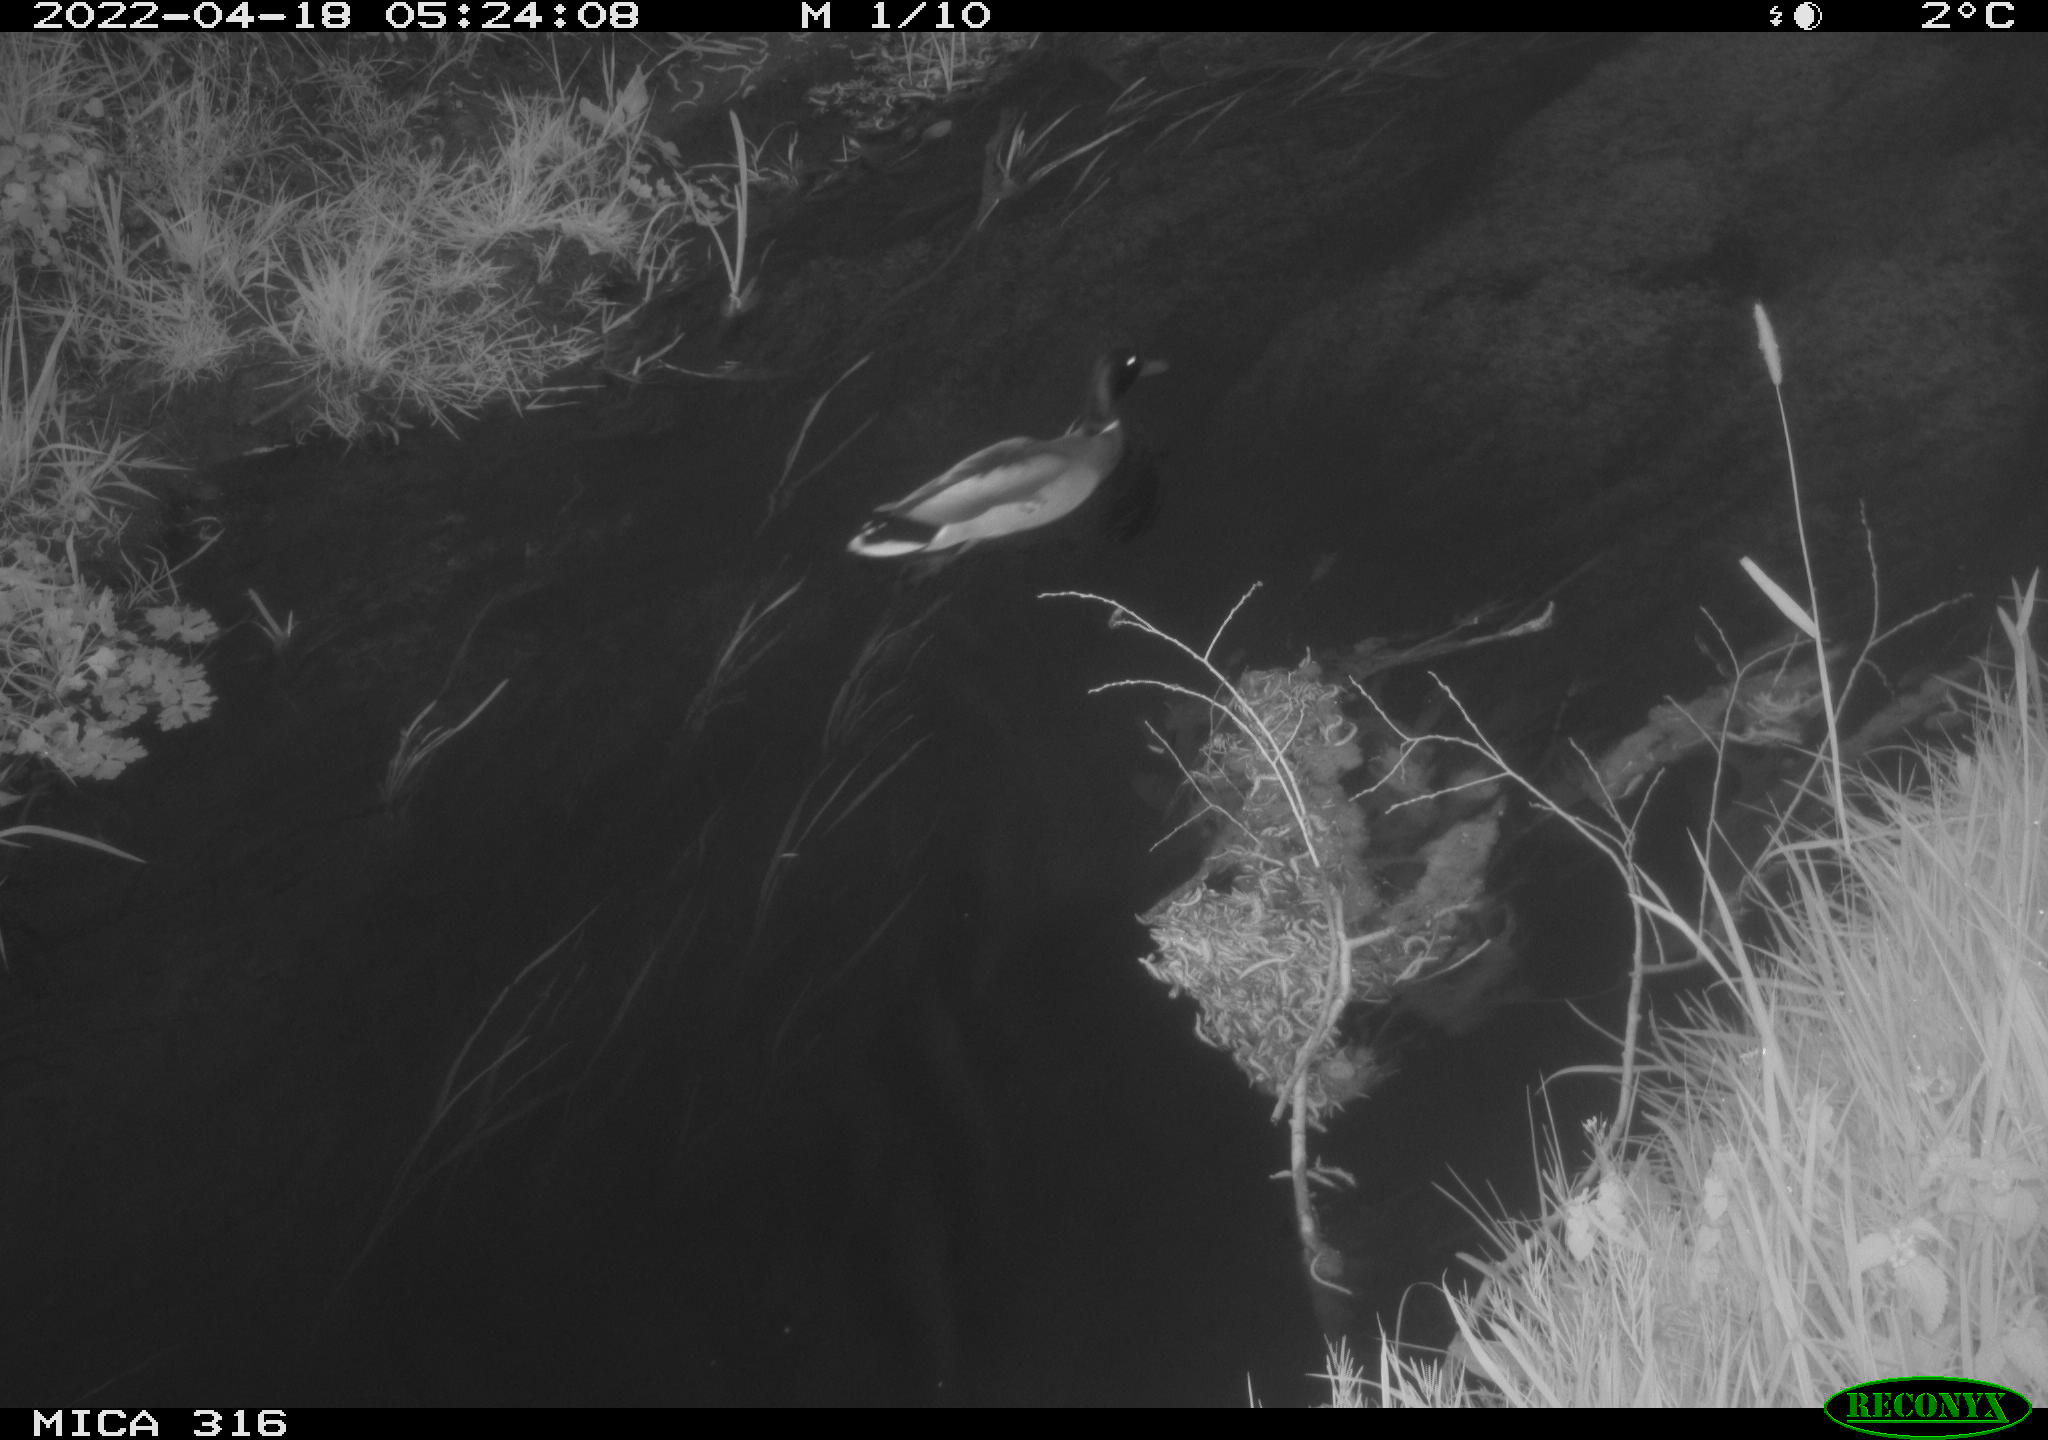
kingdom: Animalia
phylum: Chordata
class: Aves
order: Anseriformes
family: Anatidae
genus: Anas
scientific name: Anas platyrhynchos
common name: Mallard
